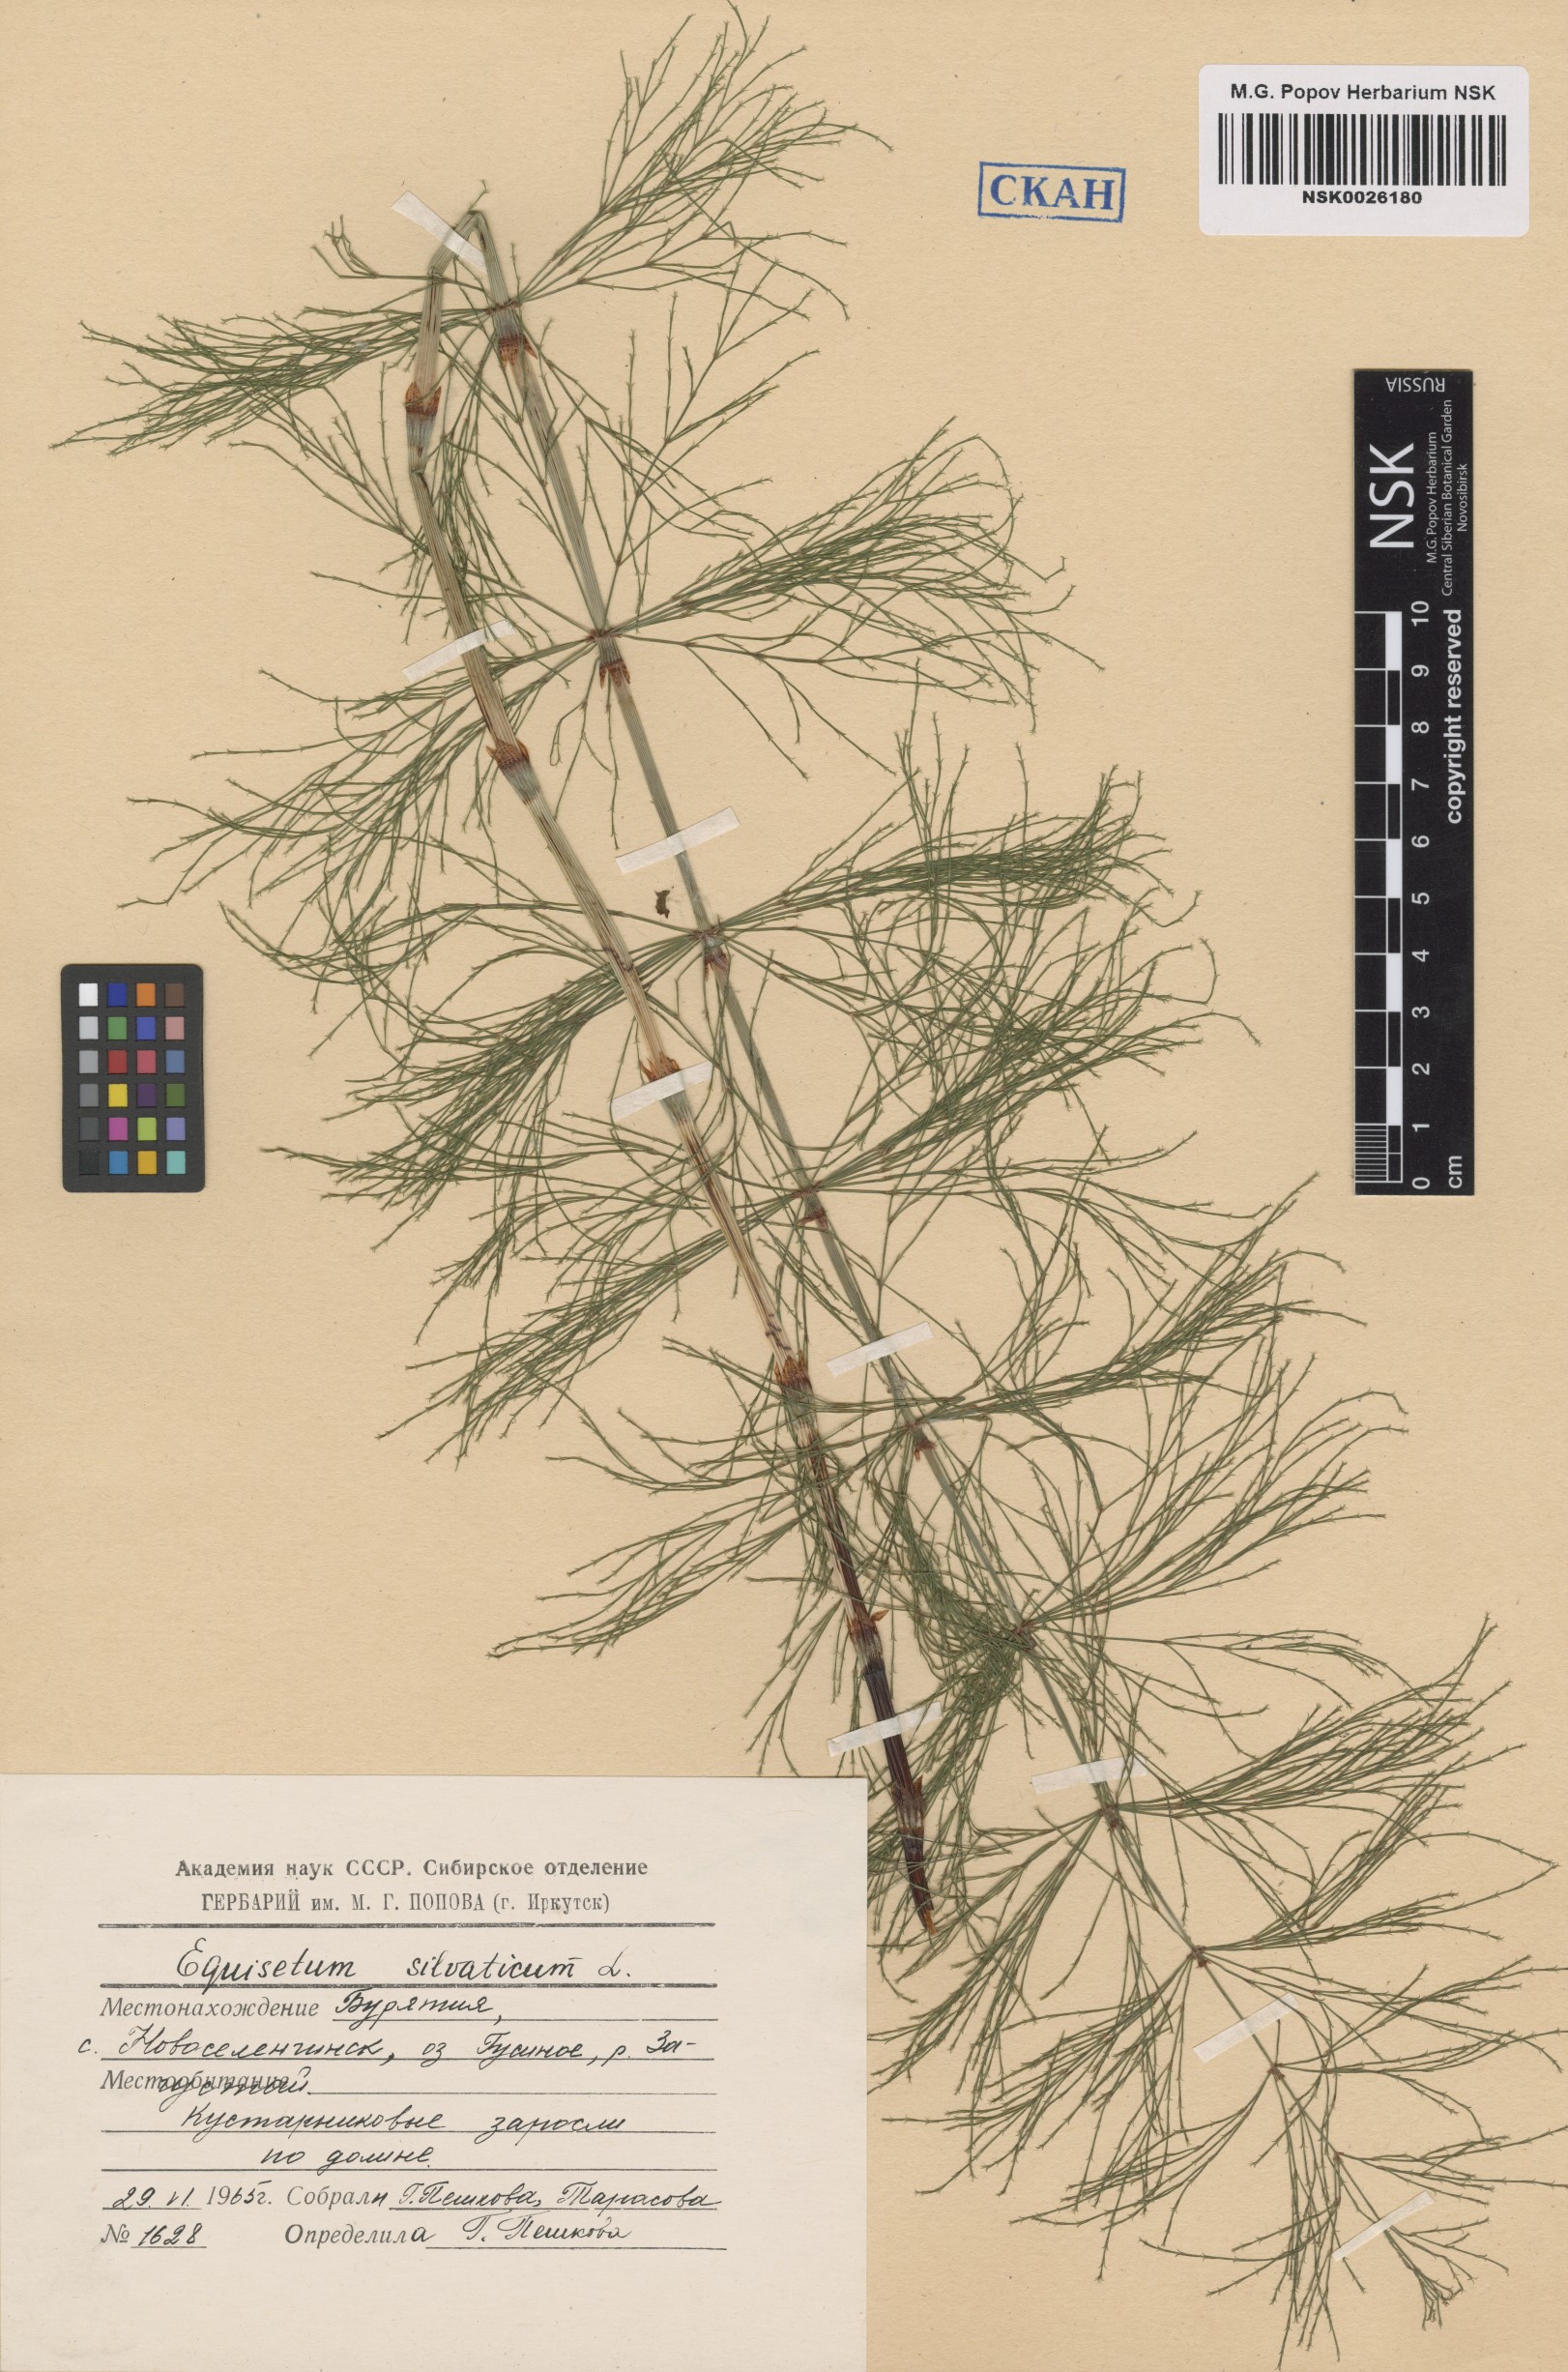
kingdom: Plantae
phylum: Tracheophyta
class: Polypodiopsida
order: Equisetales
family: Equisetaceae
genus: Equisetum
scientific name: Equisetum sylvaticum
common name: Wood horsetail
